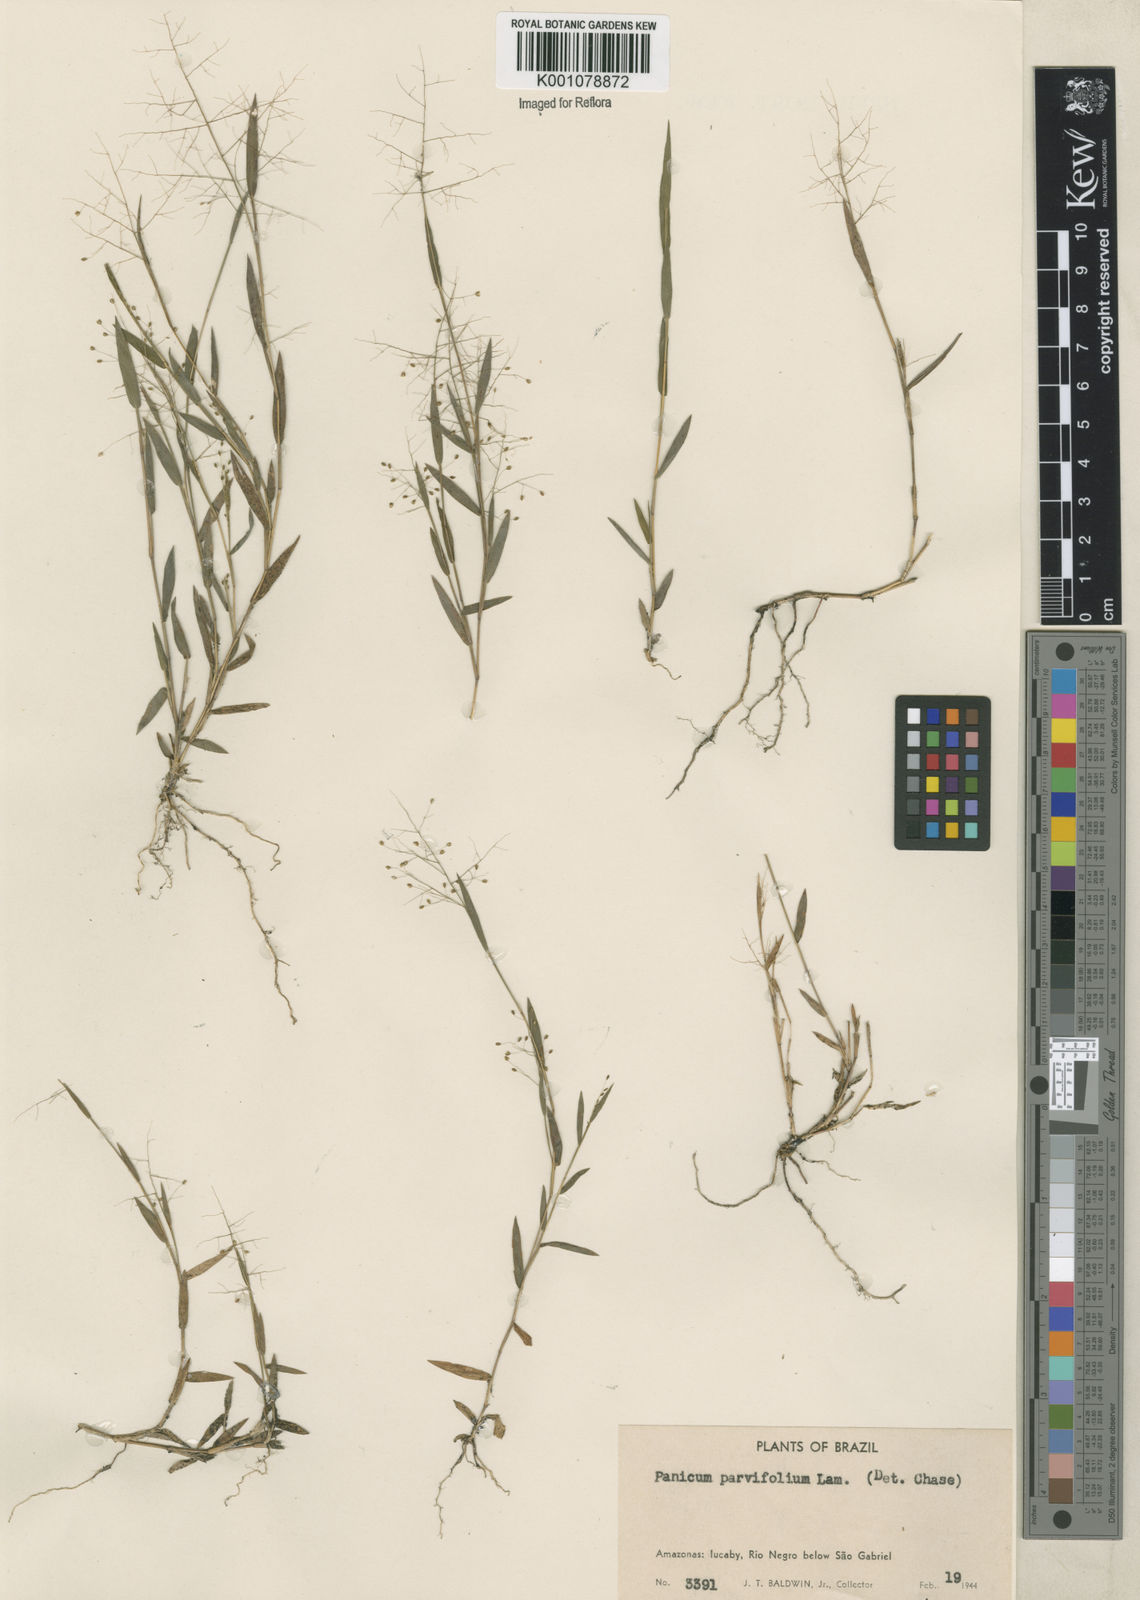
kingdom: Plantae
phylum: Tracheophyta
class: Liliopsida
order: Poales
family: Poaceae
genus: Trichanthecium
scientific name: Trichanthecium parvifolium
